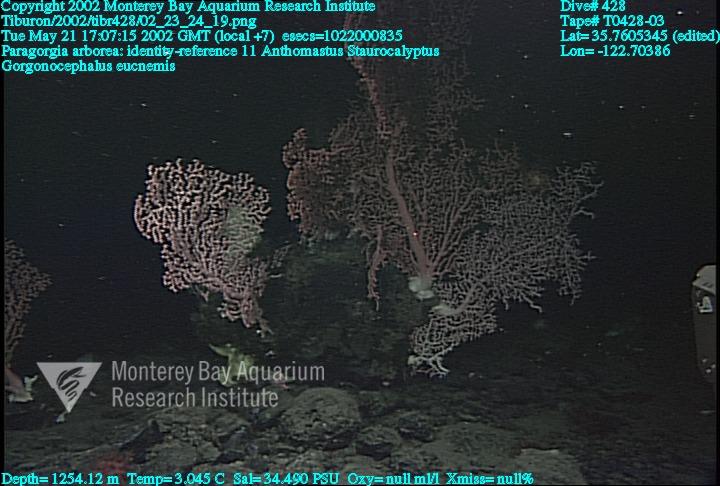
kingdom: Animalia
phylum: Porifera
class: Hexactinellida
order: Lyssacinosida
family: Rossellidae
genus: Staurocalyptus
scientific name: Staurocalyptus
